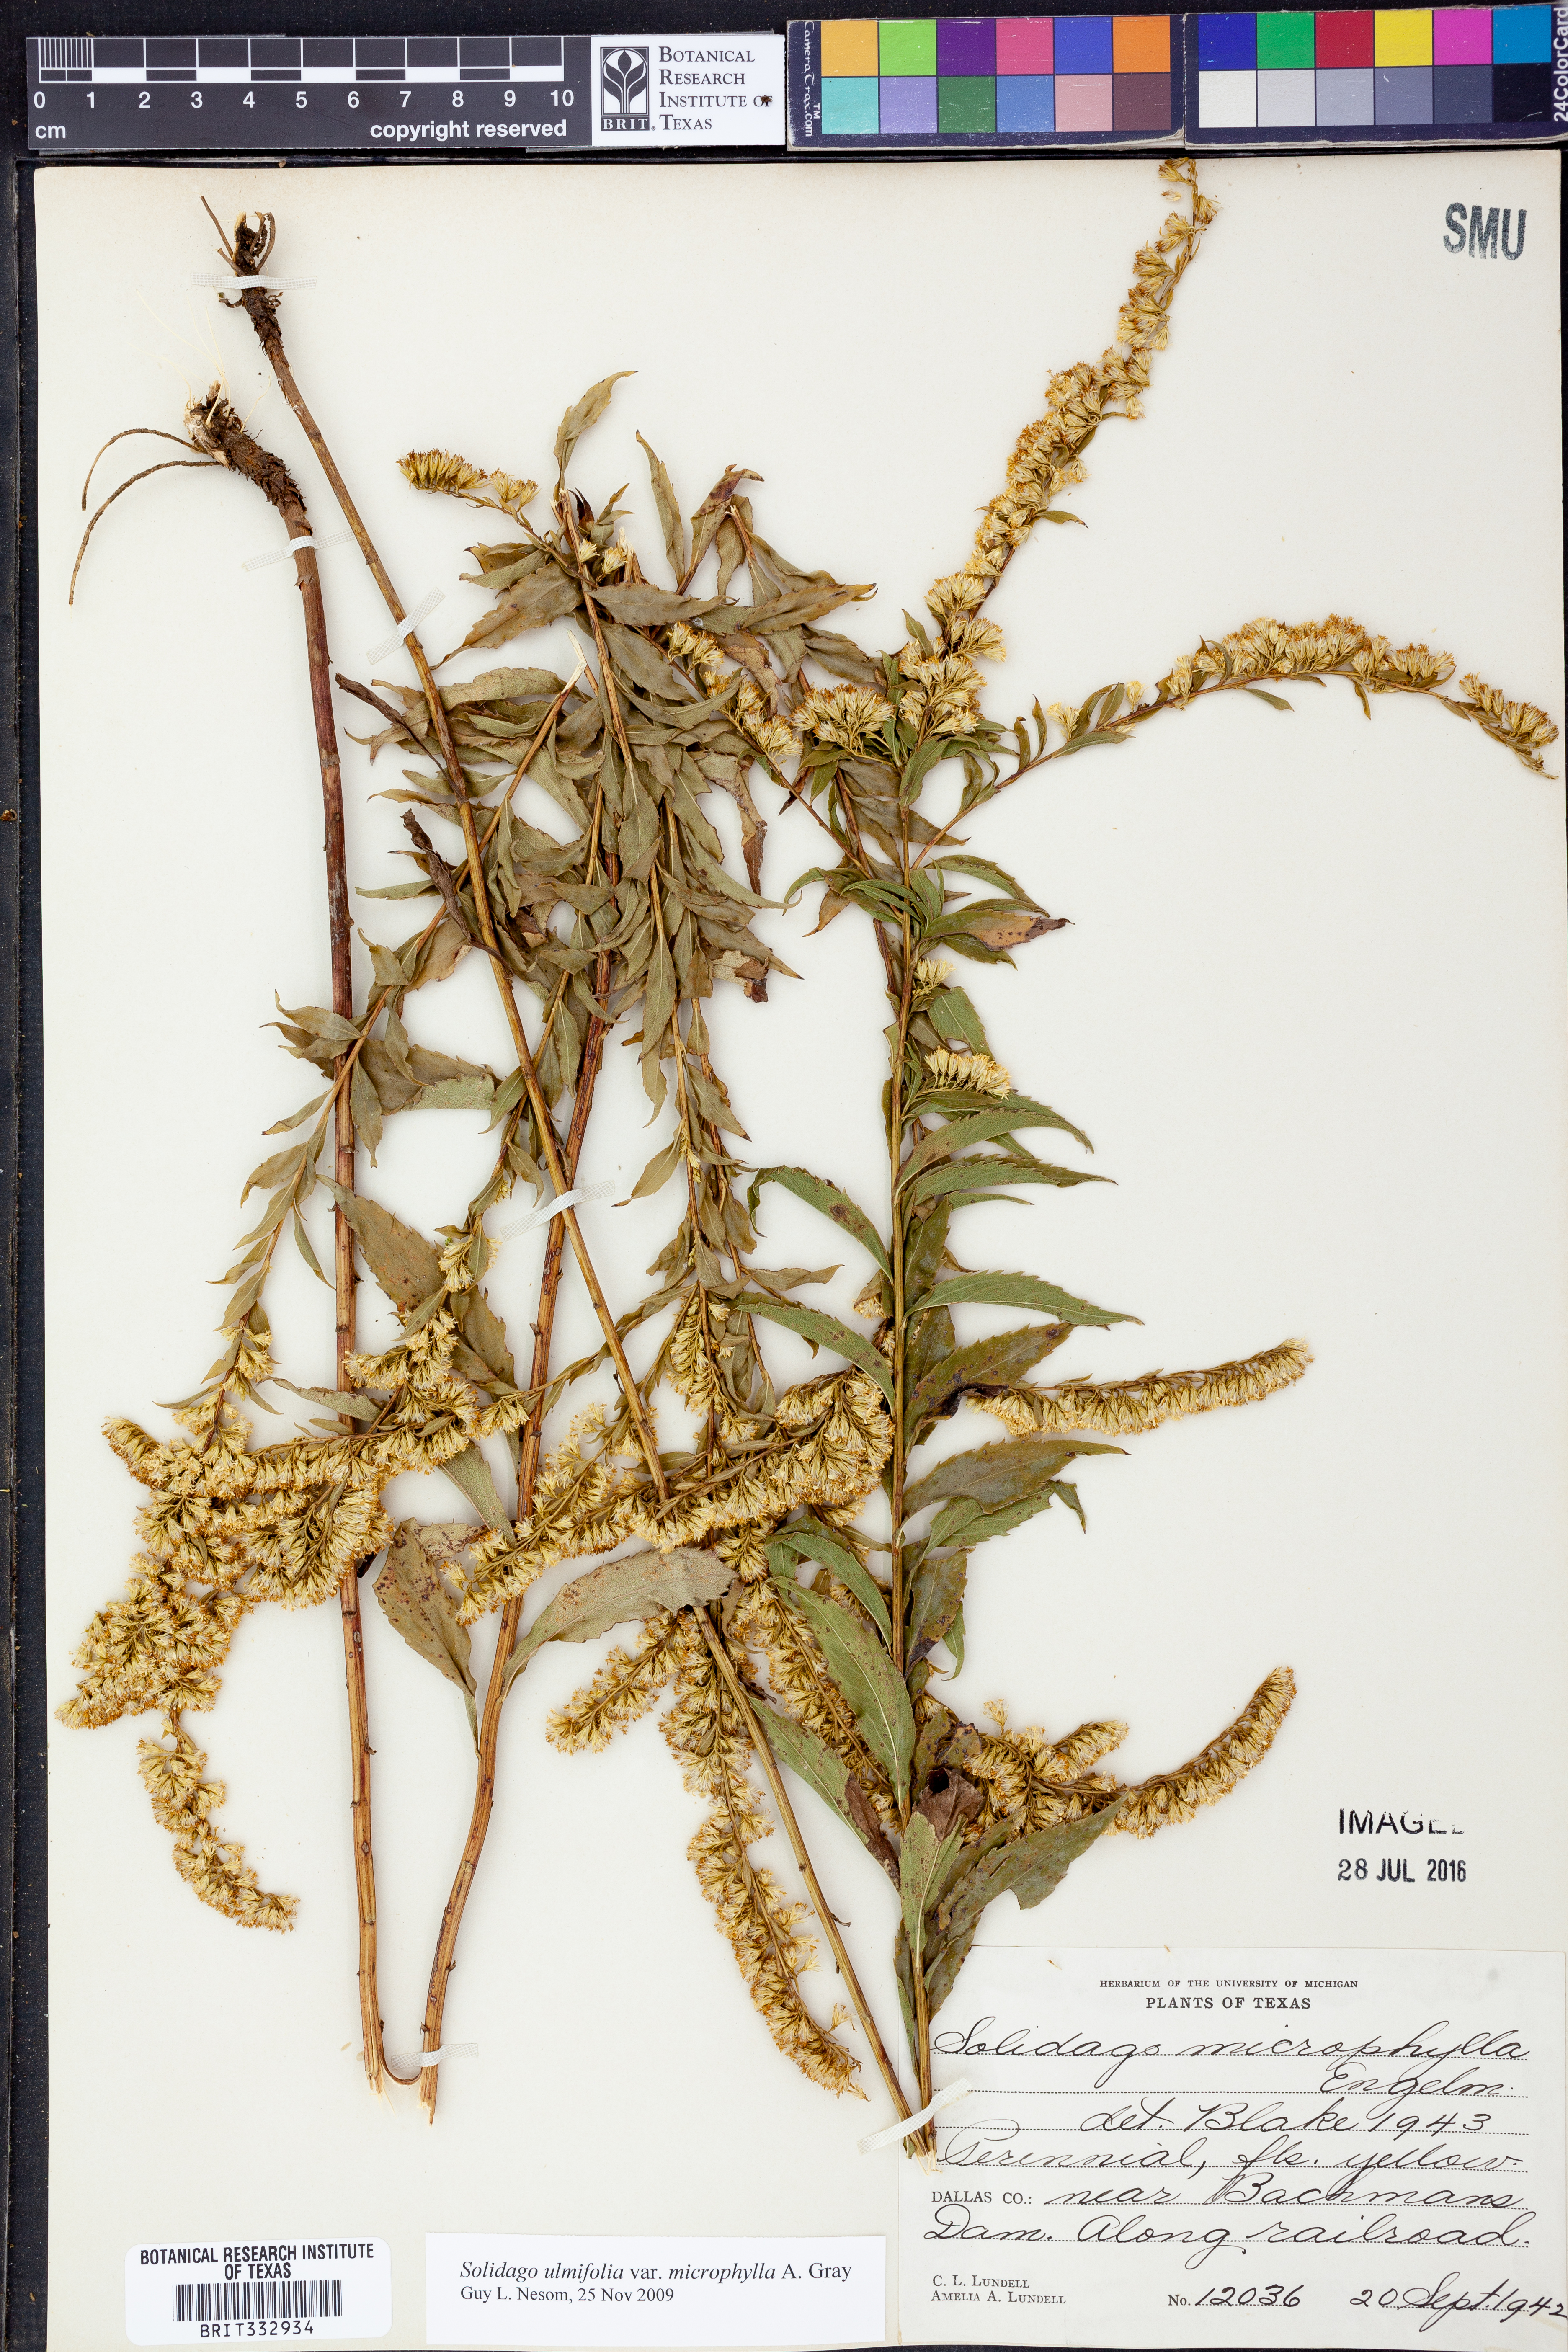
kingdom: Plantae
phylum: Tracheophyta
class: Magnoliopsida
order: Asterales
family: Asteraceae
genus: Solidago
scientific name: Solidago delicatula
